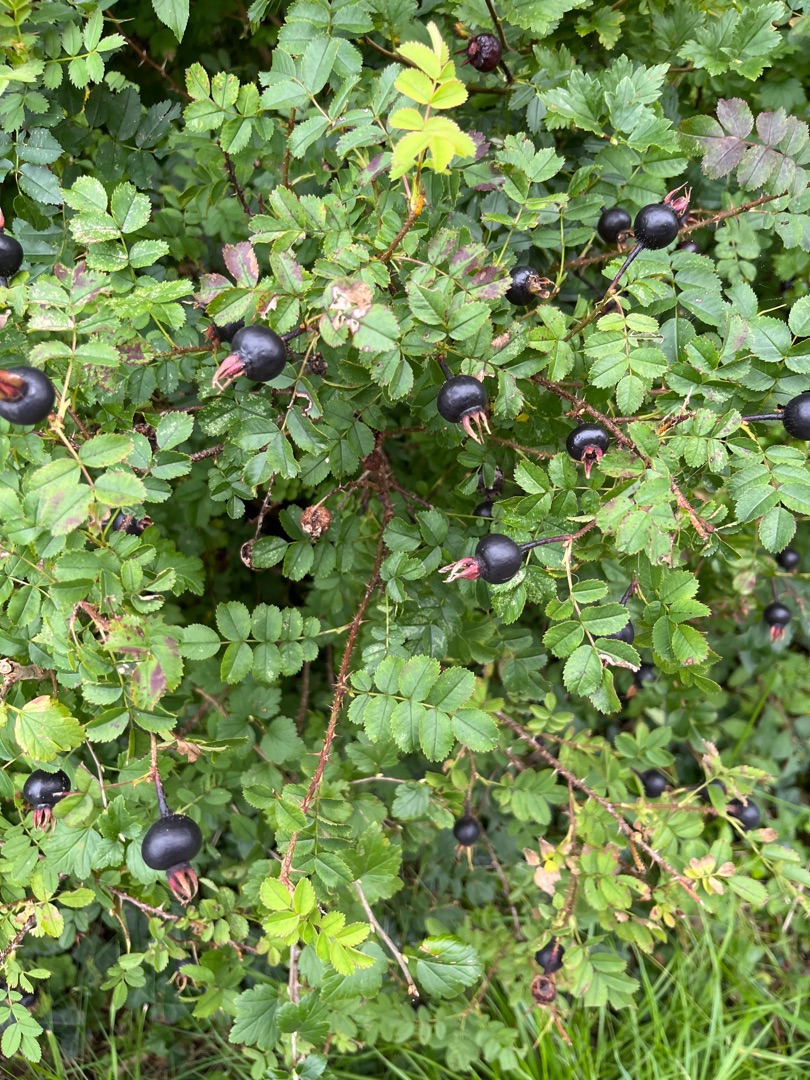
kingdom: Plantae
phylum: Tracheophyta
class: Magnoliopsida
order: Rosales
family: Rosaceae
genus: Rosa
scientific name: Rosa spinosissima
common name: Klit-rose
